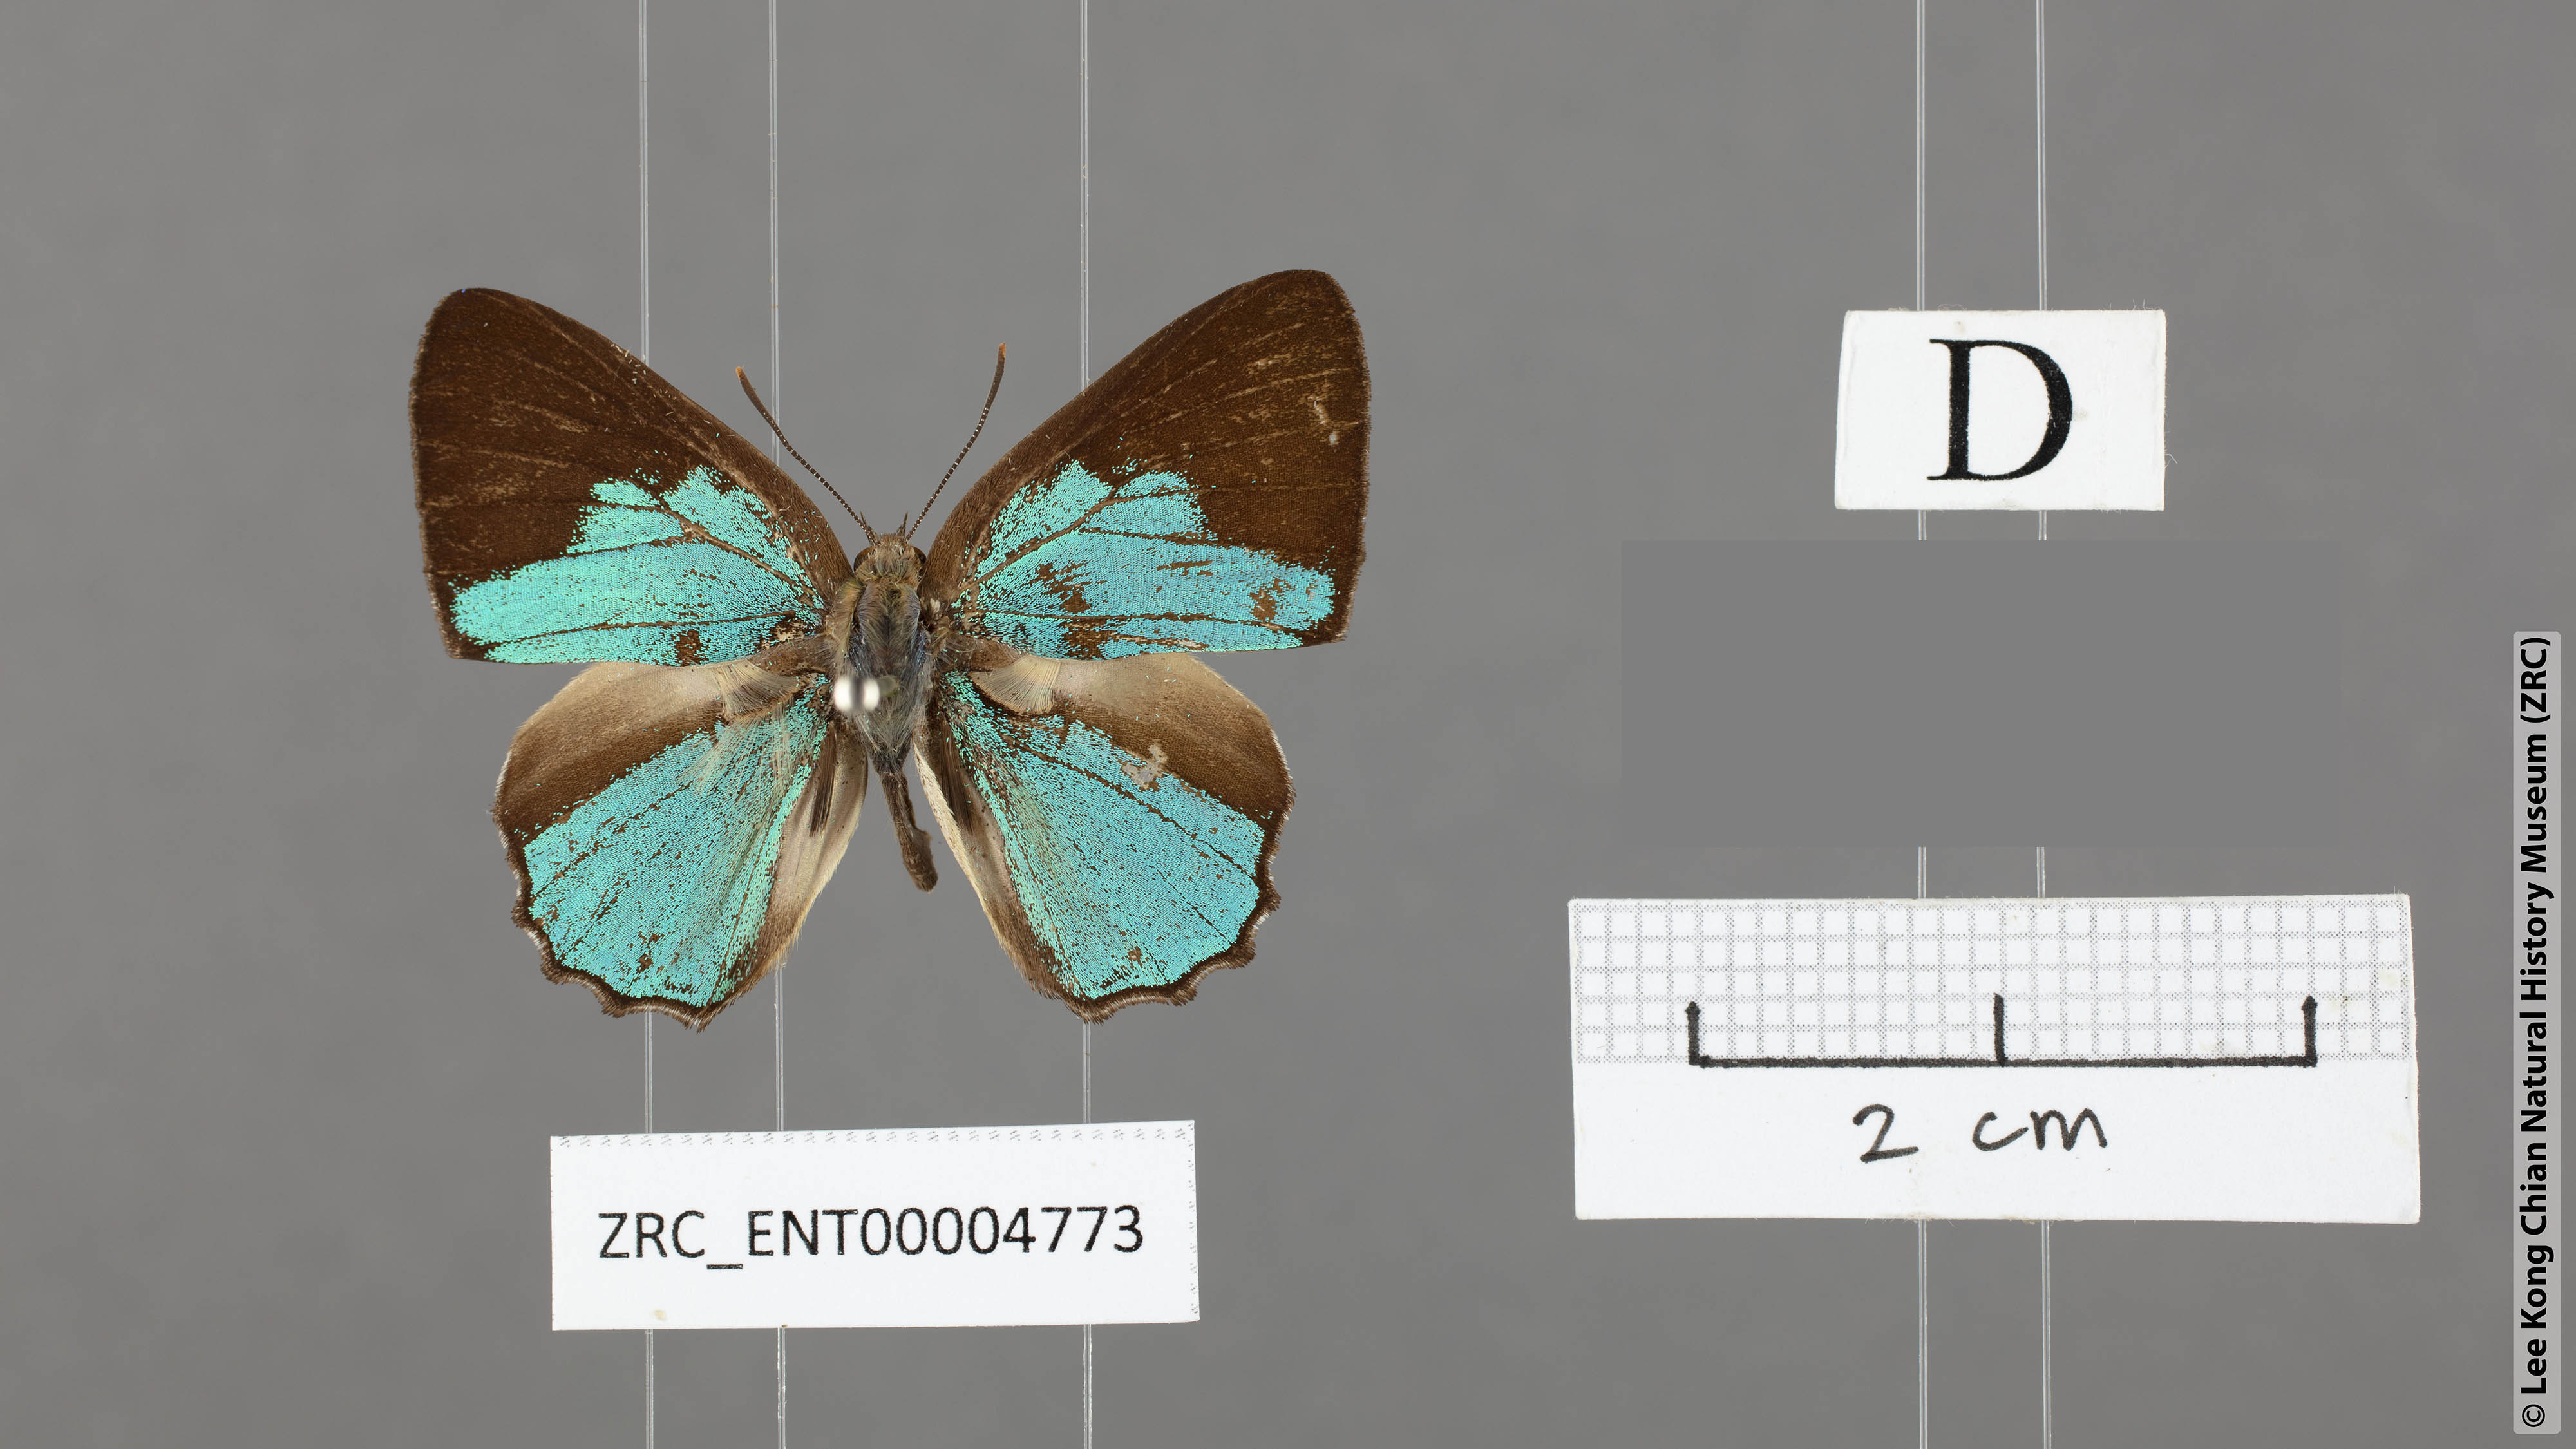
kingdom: Animalia
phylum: Arthropoda
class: Insecta
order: Lepidoptera
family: Lycaenidae
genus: Poritia
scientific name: Poritia promula
